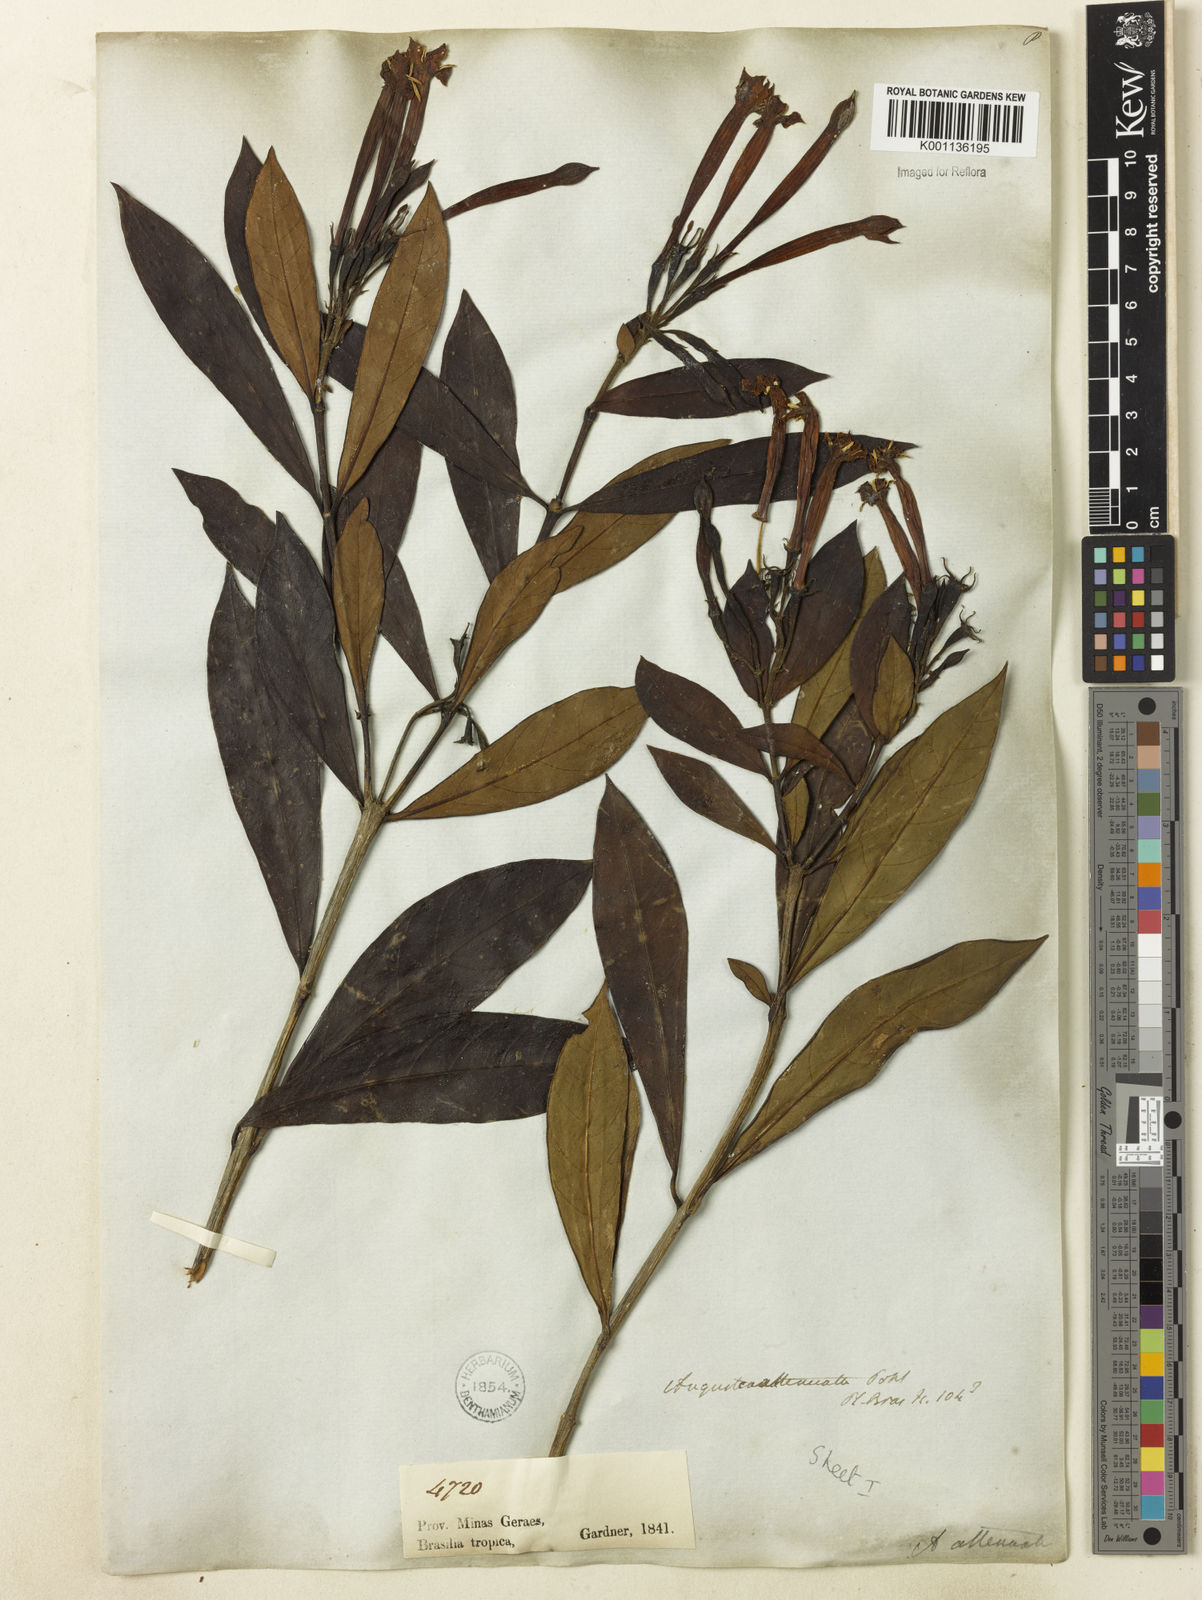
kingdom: Plantae
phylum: Tracheophyta
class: Magnoliopsida
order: Gentianales
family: Rubiaceae
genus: Augusta
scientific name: Augusta longifolia
